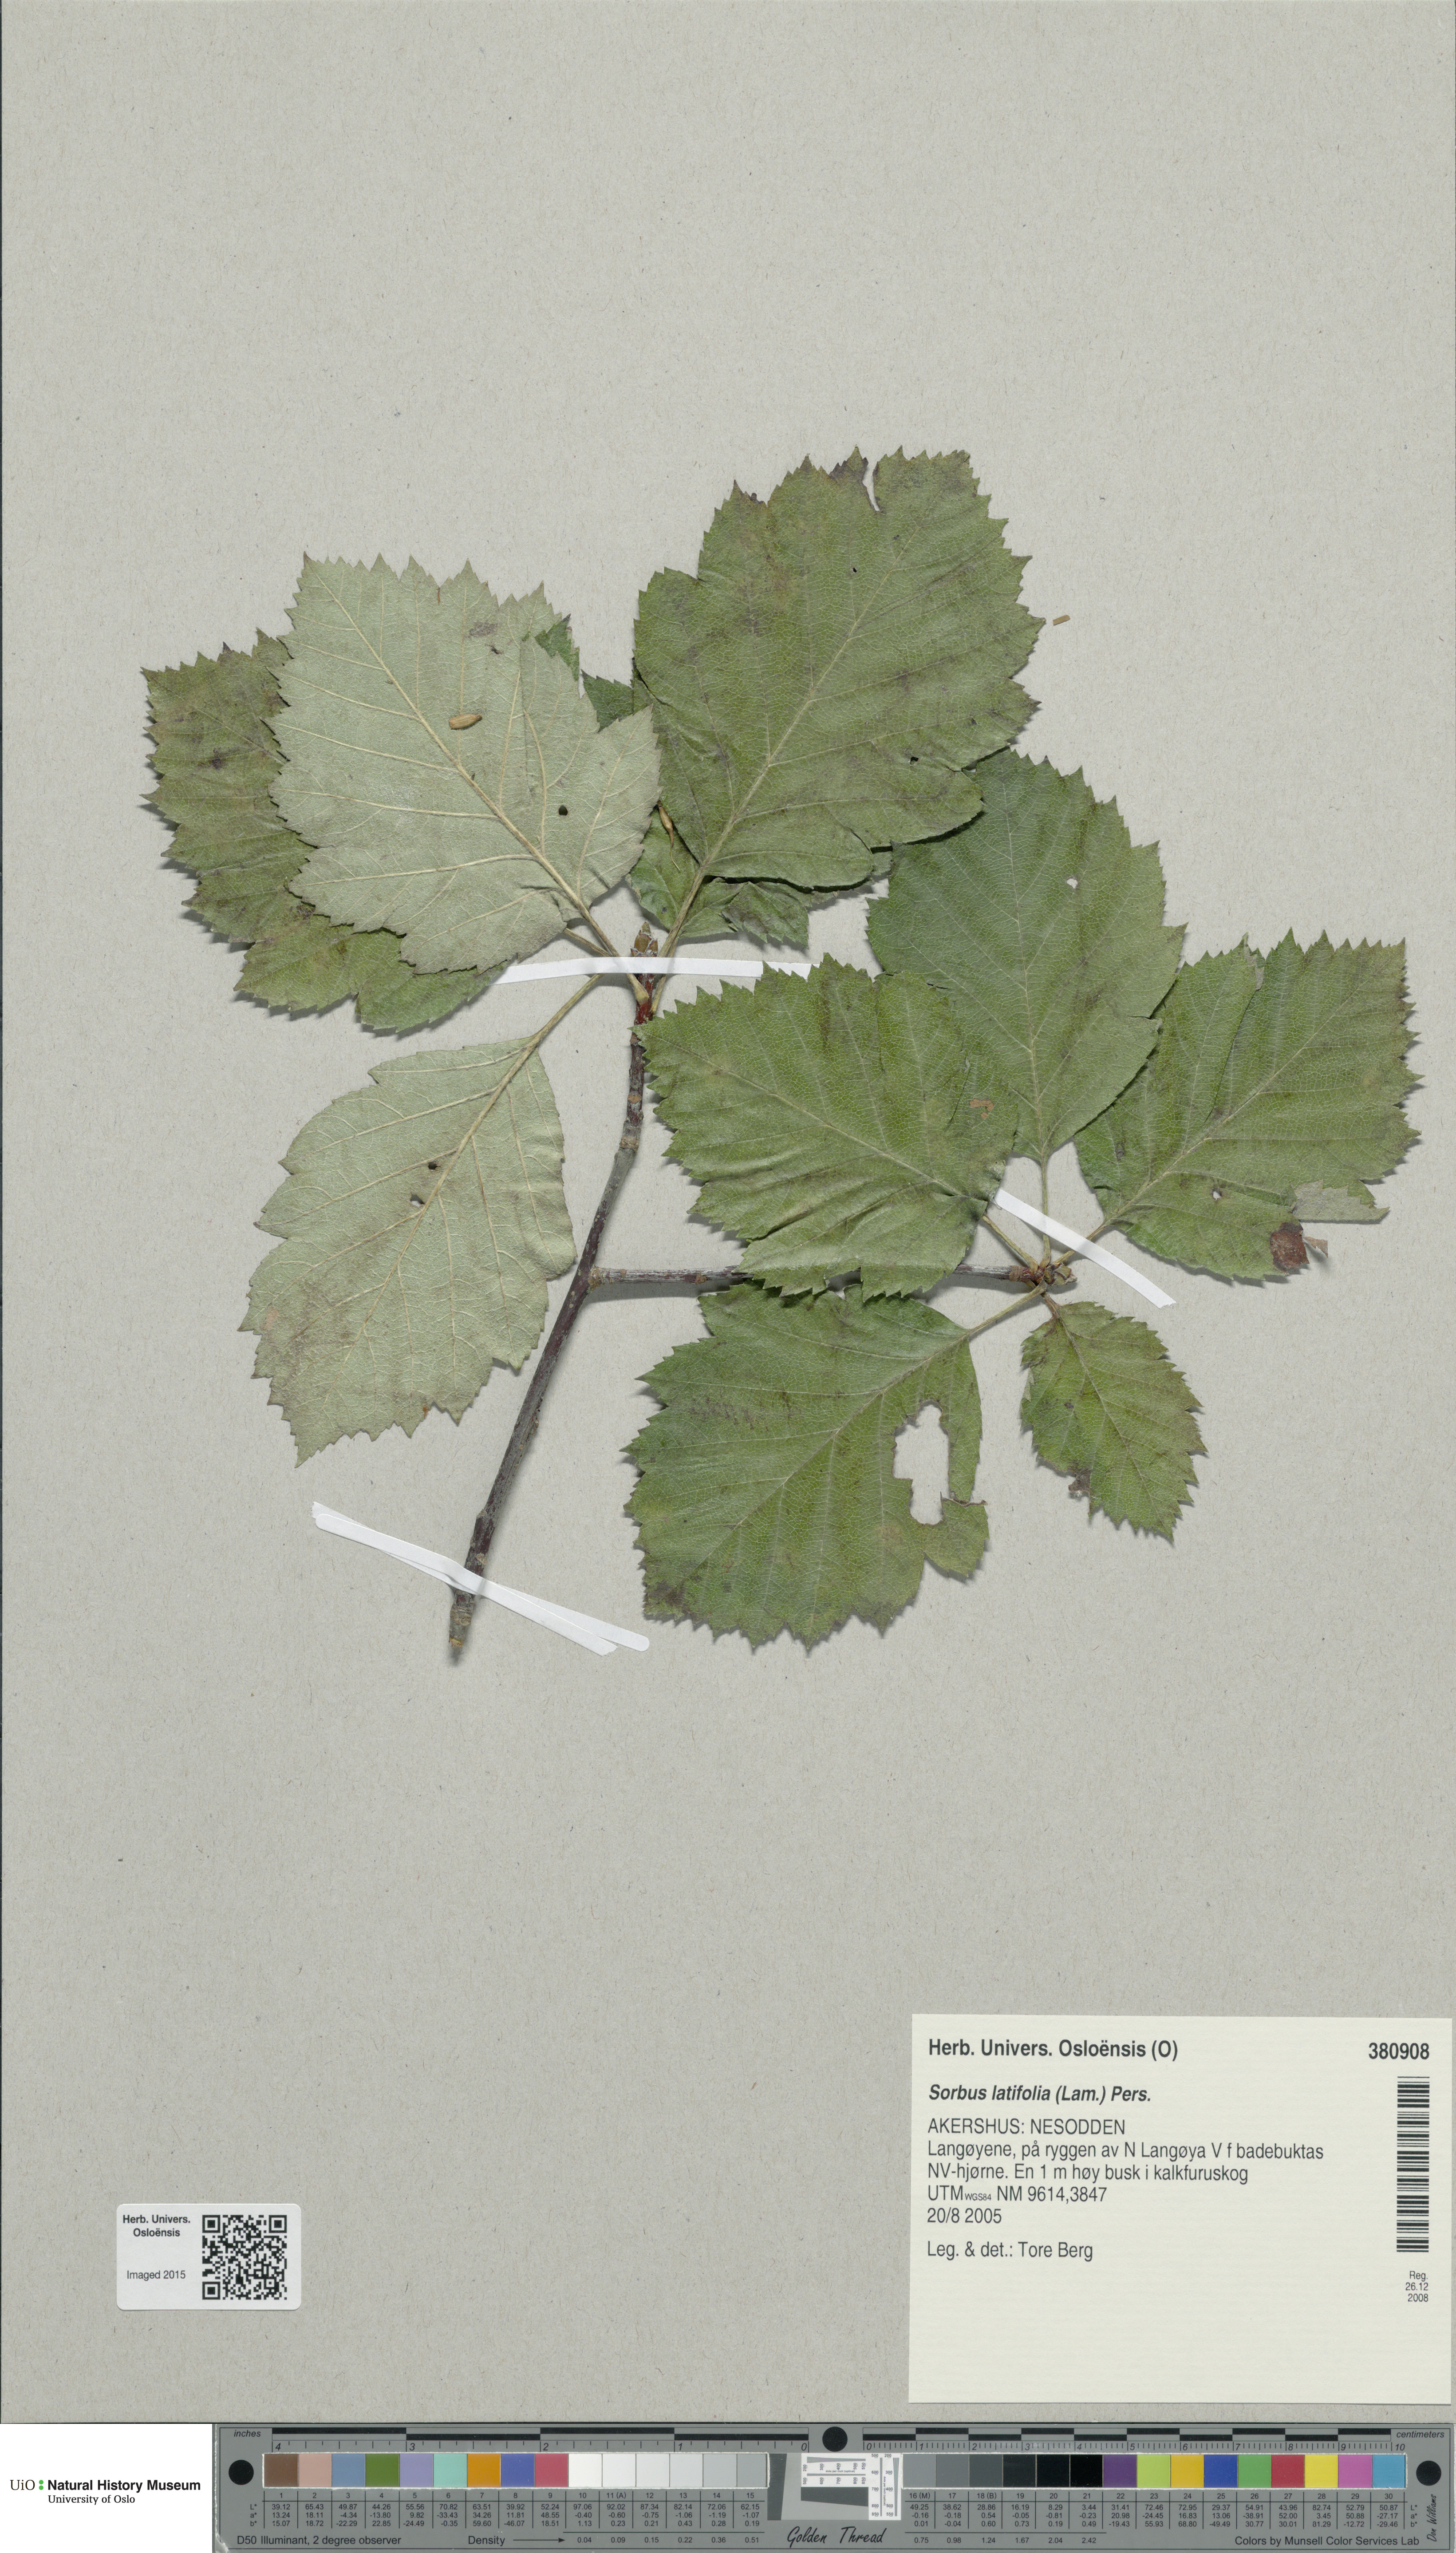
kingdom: Plantae
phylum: Tracheophyta
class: Magnoliopsida
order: Rosales
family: Rosaceae
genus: Karpatiosorbus
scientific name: Karpatiosorbus latifolia
